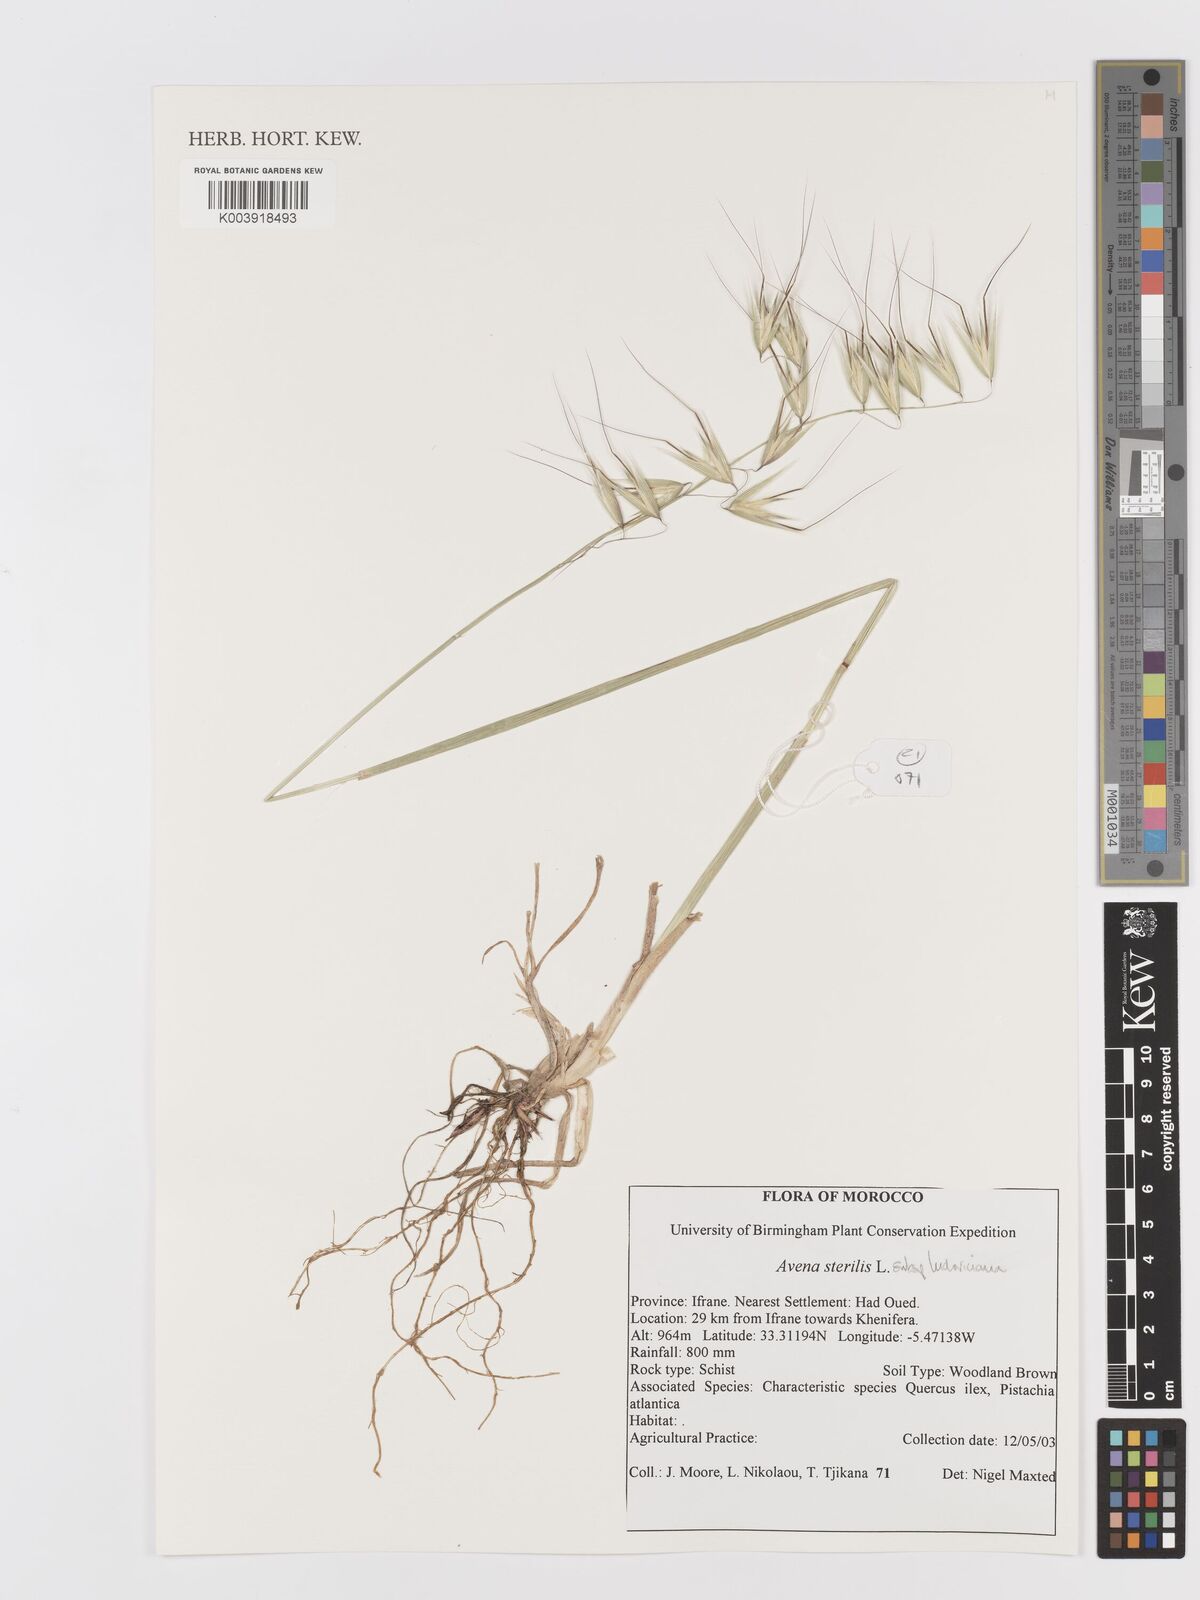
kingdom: Plantae
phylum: Tracheophyta
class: Liliopsida
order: Poales
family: Poaceae
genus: Avena
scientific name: Avena sterilis
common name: Animated oat
